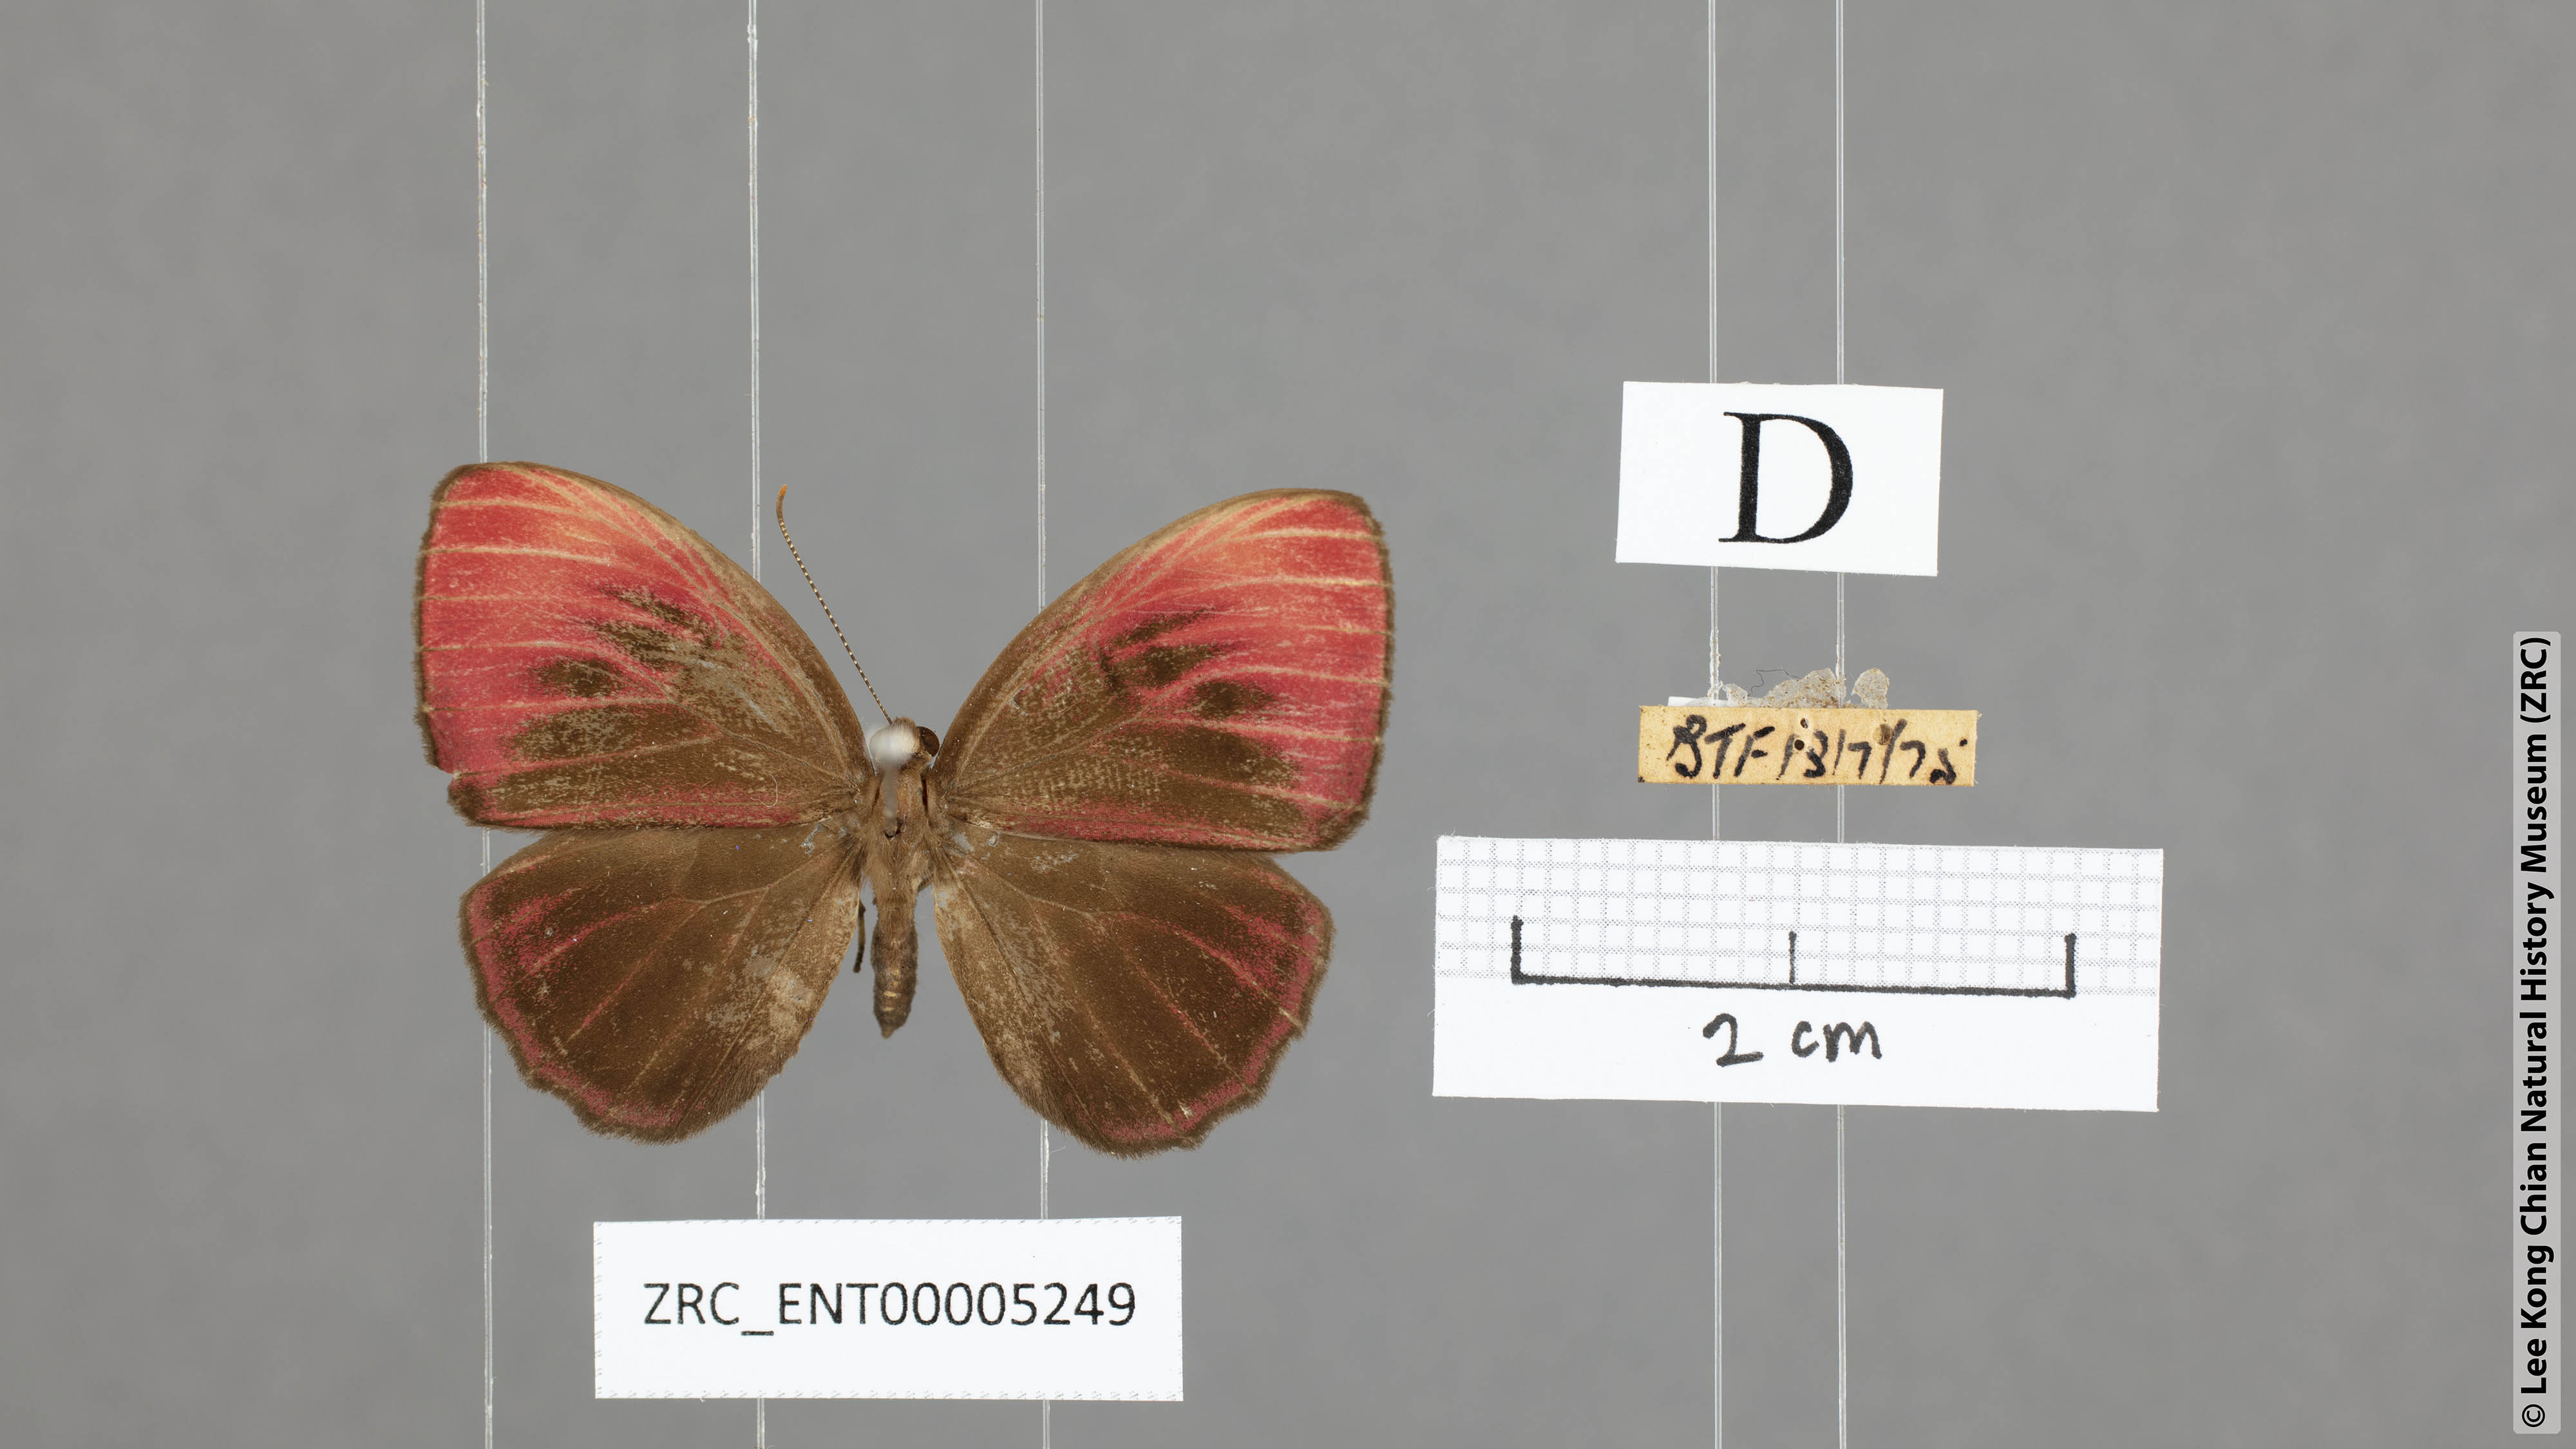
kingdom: Animalia
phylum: Arthropoda
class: Insecta
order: Lepidoptera
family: Riodinidae
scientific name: Riodinidae
